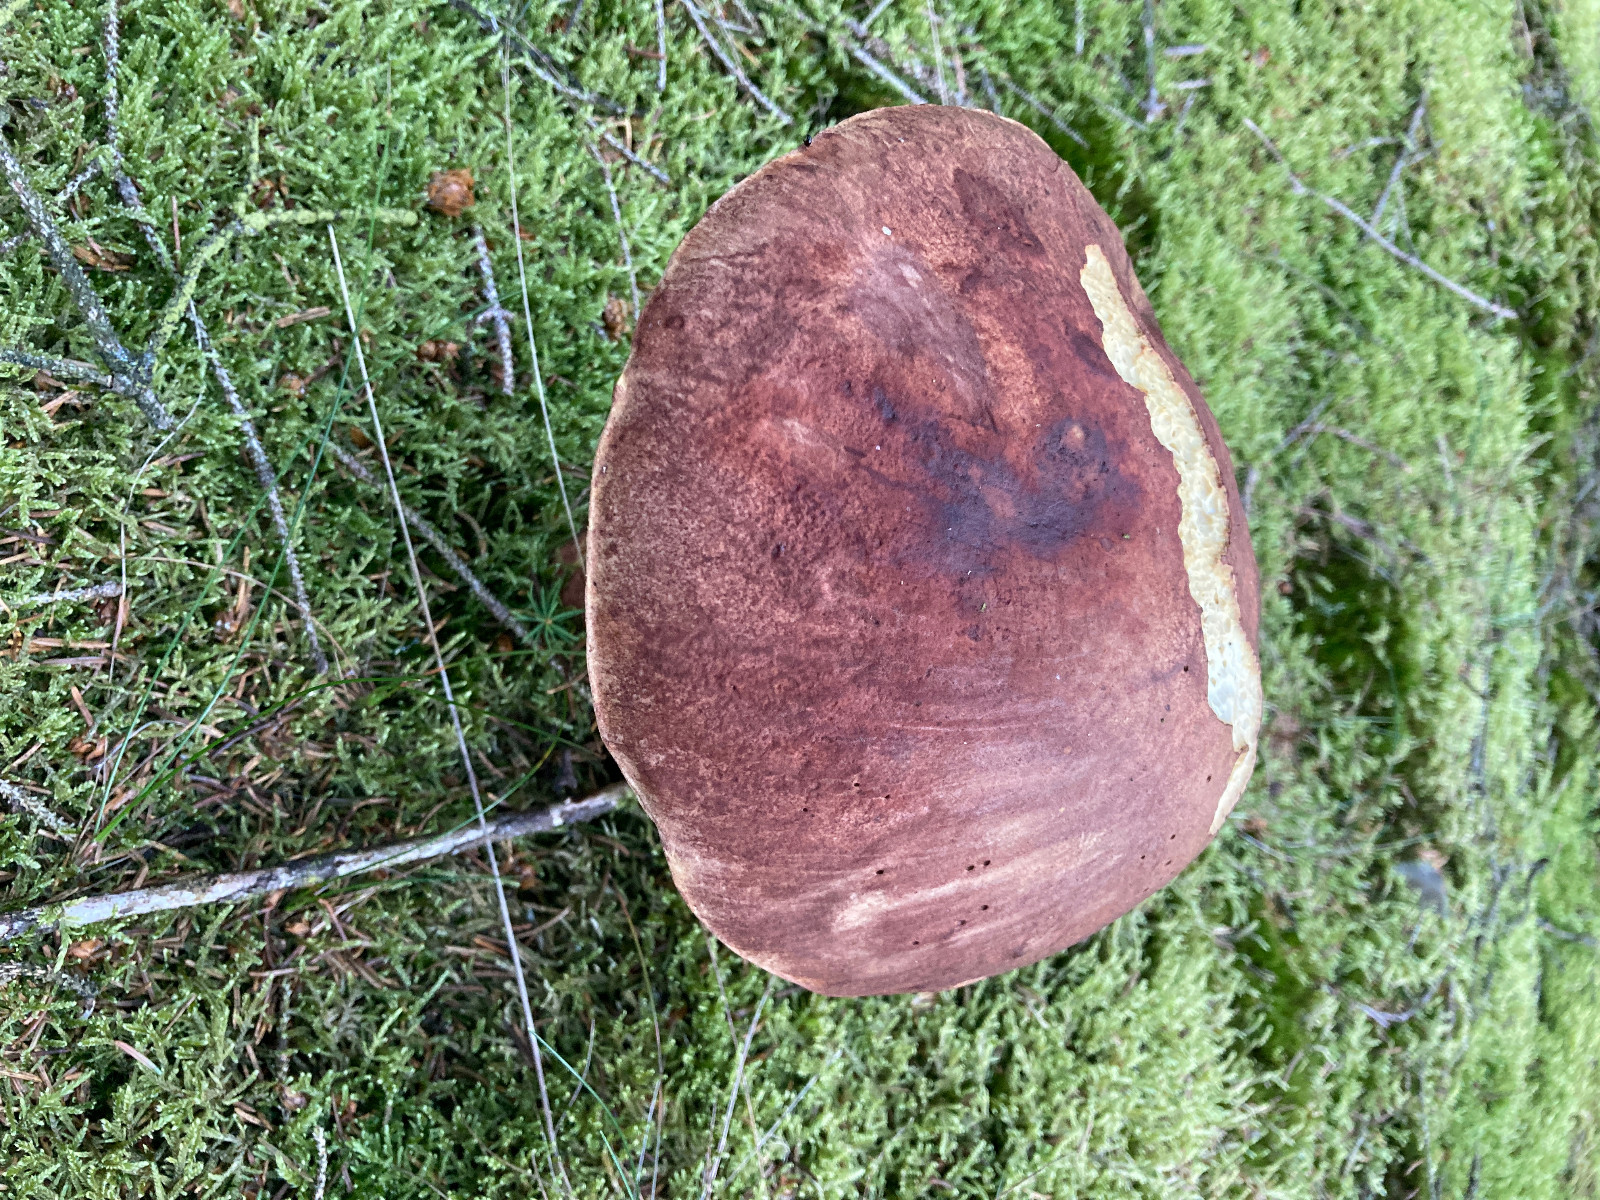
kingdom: Fungi
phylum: Basidiomycota
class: Agaricomycetes
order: Boletales
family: Boletaceae
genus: Boletus
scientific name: Boletus pinophilus
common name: rødbrun rørhat
